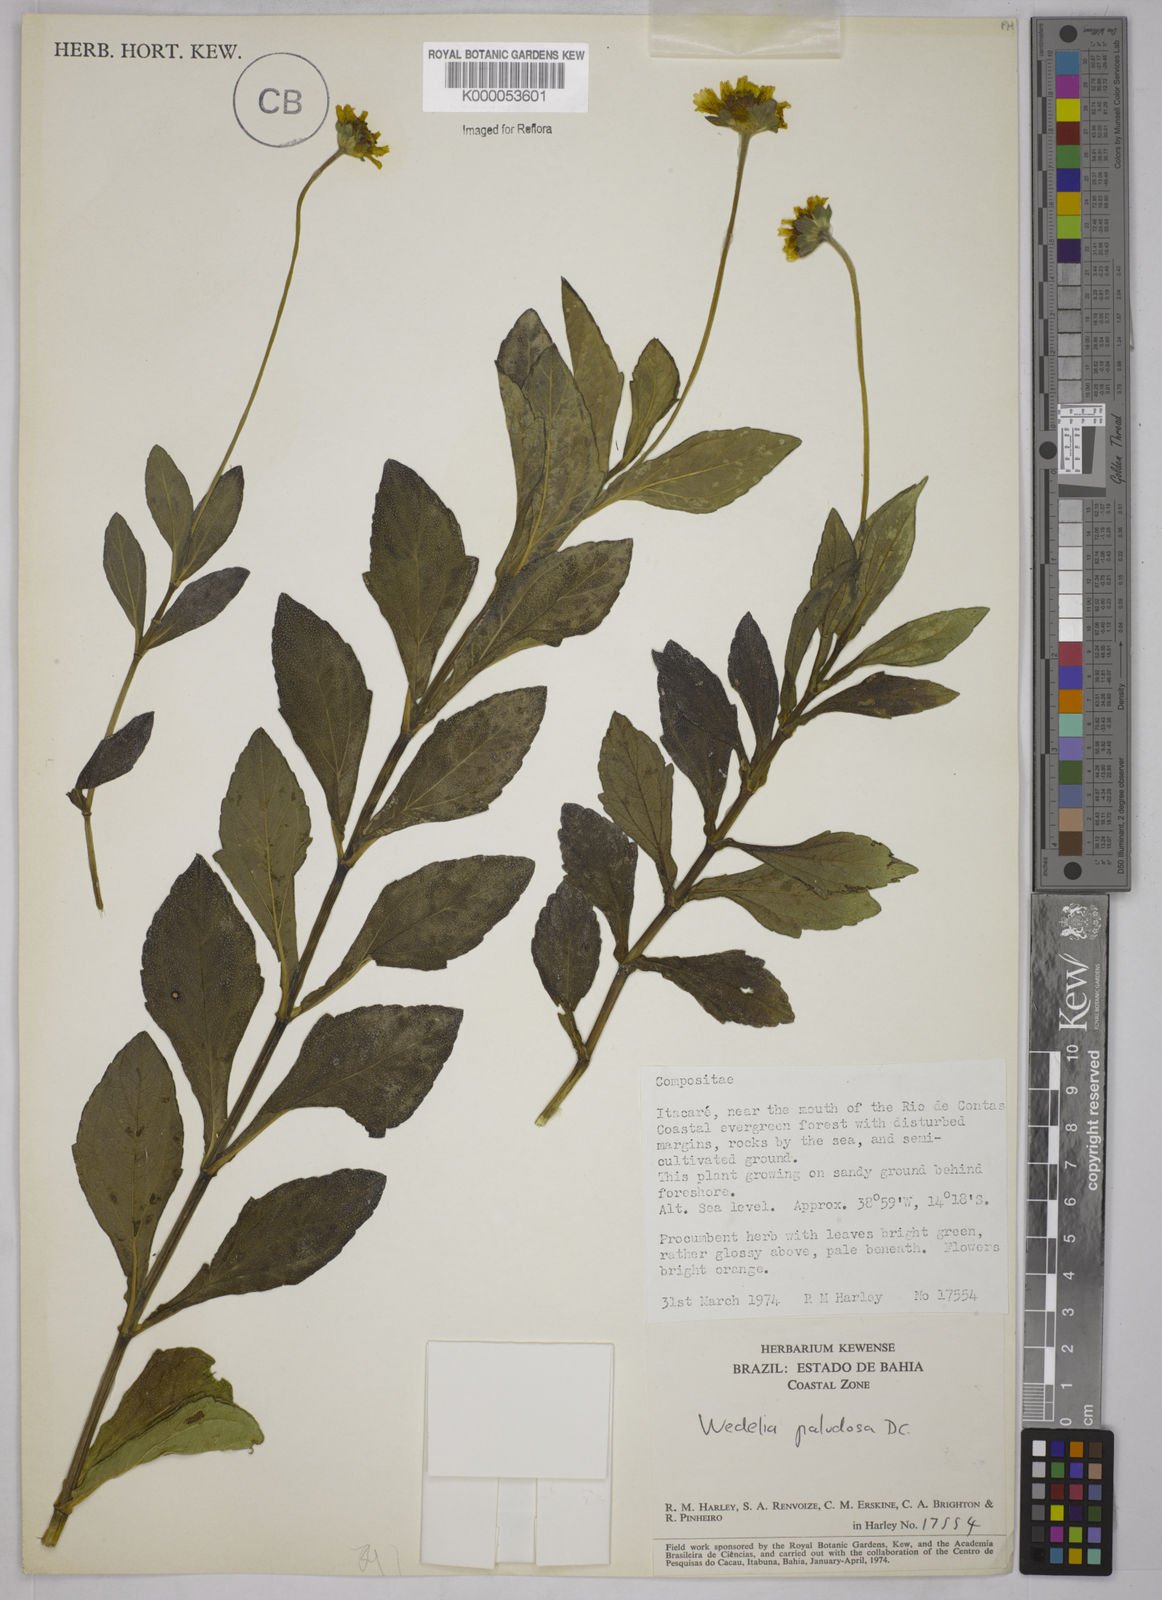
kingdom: Plantae
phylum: Tracheophyta
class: Magnoliopsida
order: Asterales
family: Asteraceae
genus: Sphagneticola
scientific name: Sphagneticola trilobata
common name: Bay biscayne creeping-oxeye
